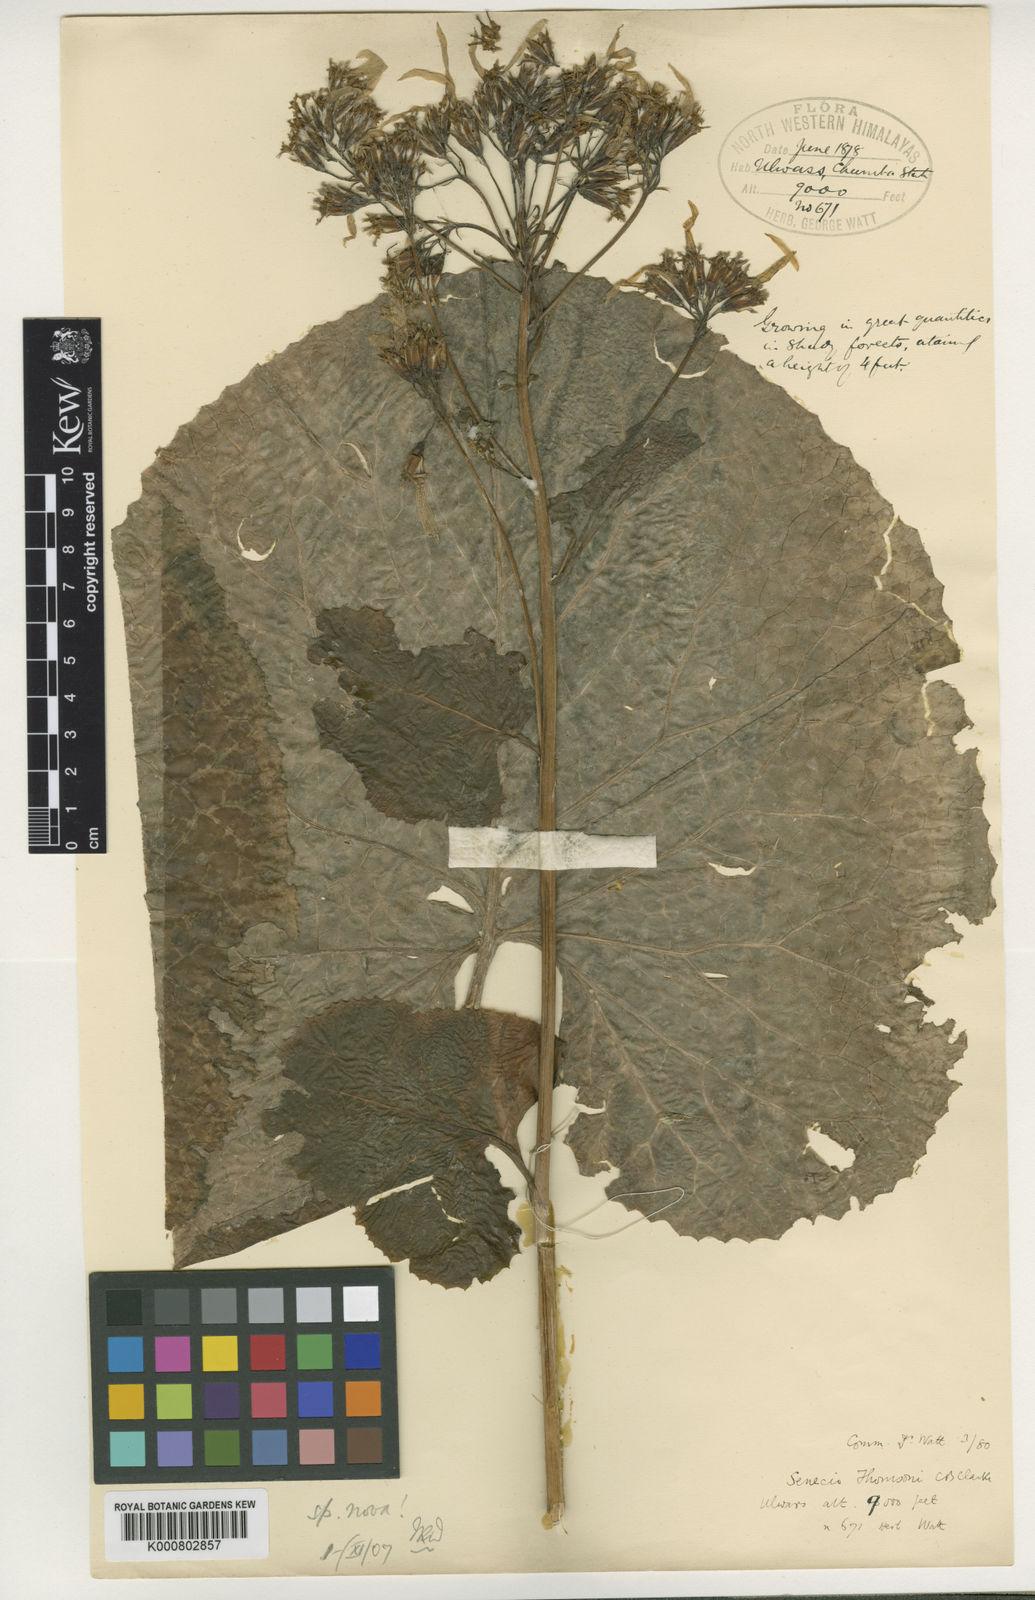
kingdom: Plantae
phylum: Tracheophyta
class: Magnoliopsida
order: Asterales
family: Asteraceae
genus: Vickifunkia
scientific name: Vickifunkia thomsonii
